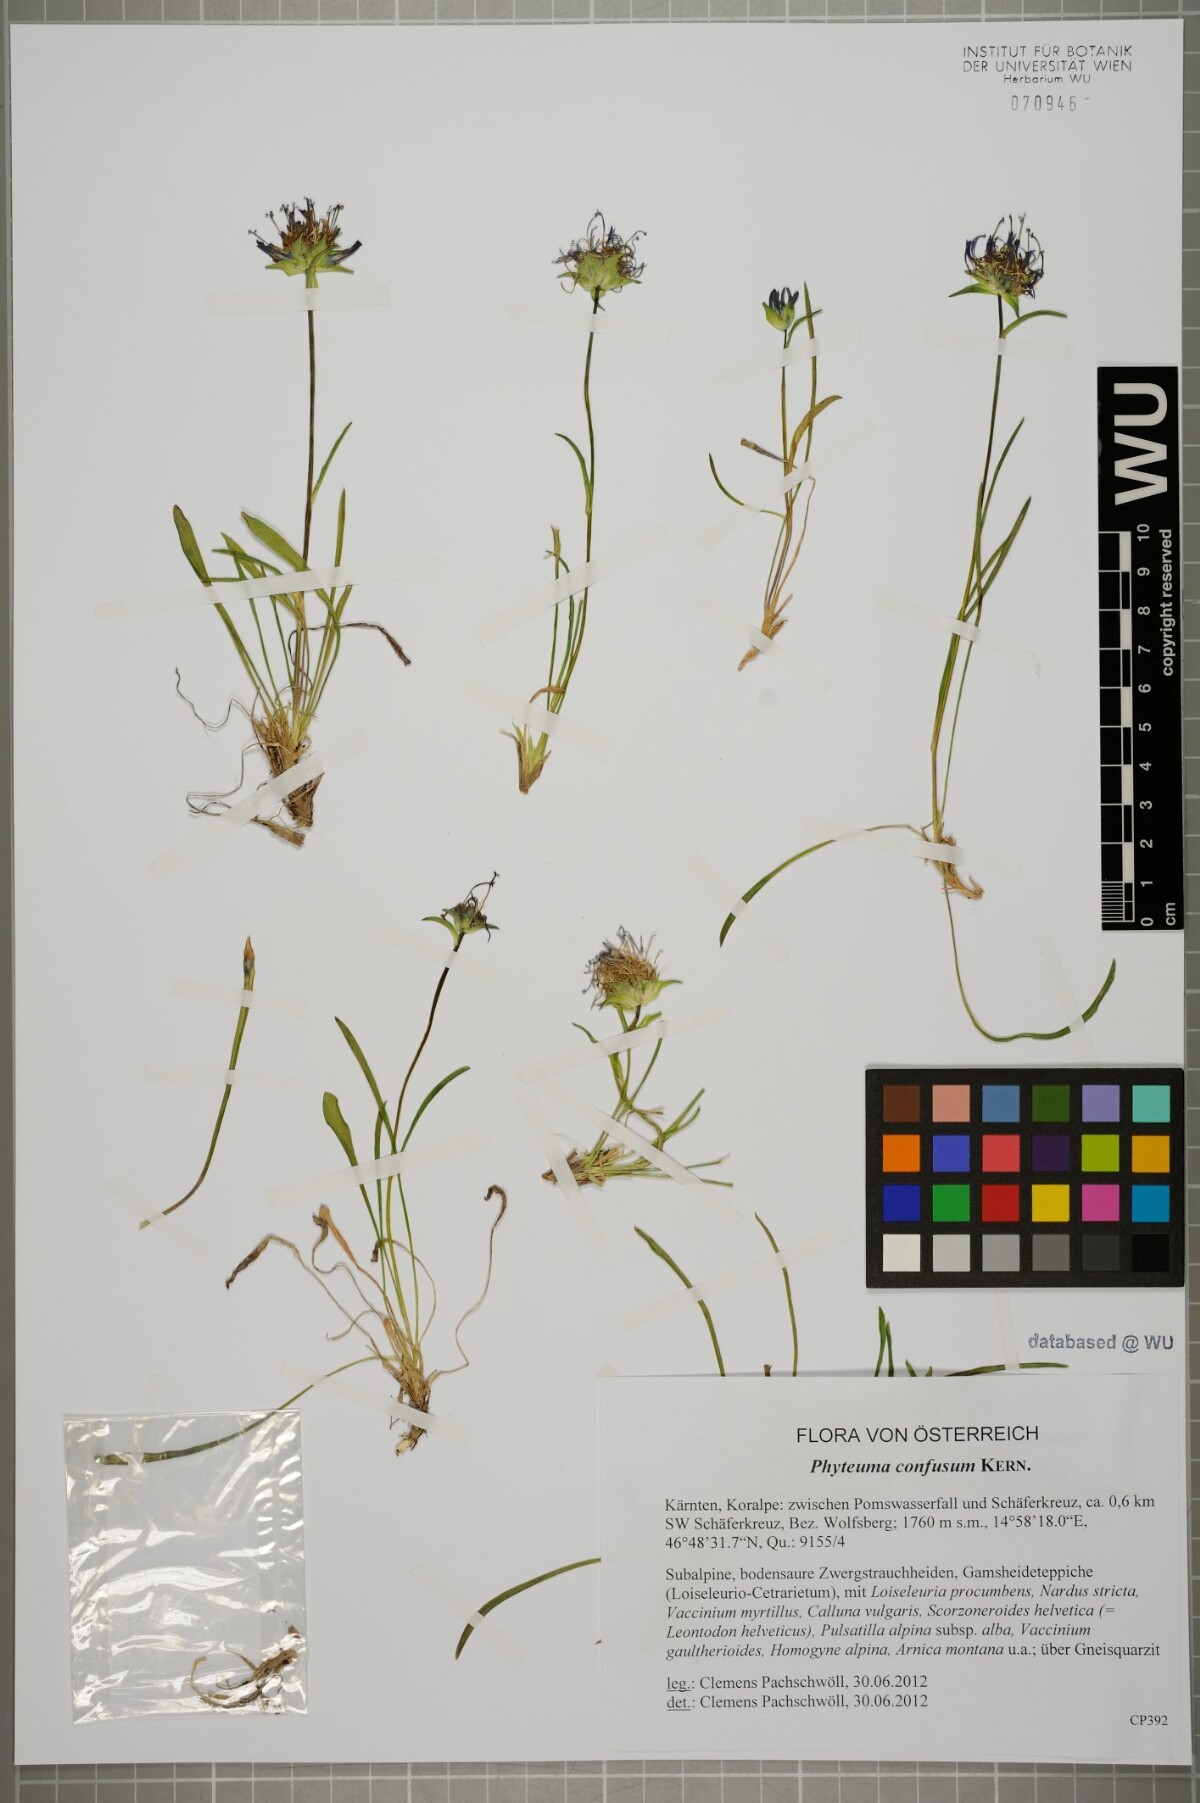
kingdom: Plantae
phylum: Tracheophyta
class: Magnoliopsida
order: Asterales
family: Campanulaceae
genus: Phyteuma
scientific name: Phyteuma confusum
